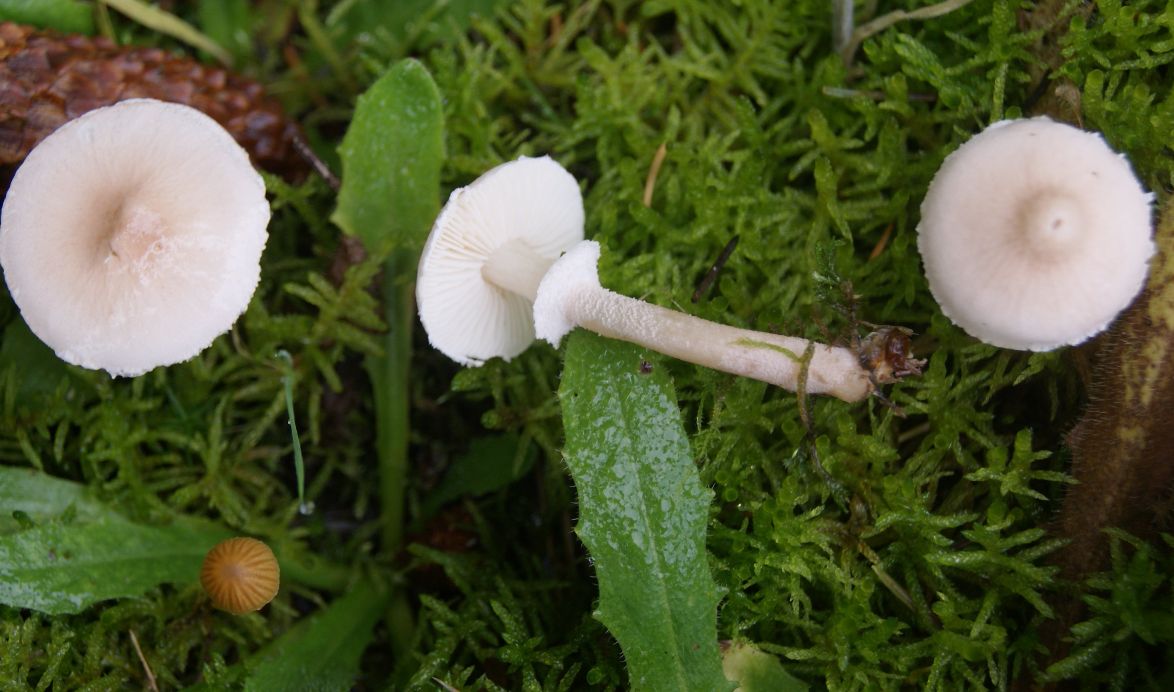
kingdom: Fungi
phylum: Basidiomycota
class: Agaricomycetes
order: Agaricales
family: Tricholomataceae
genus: Cystoderma
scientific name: Cystoderma carcharias
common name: rødgrå grynhat
